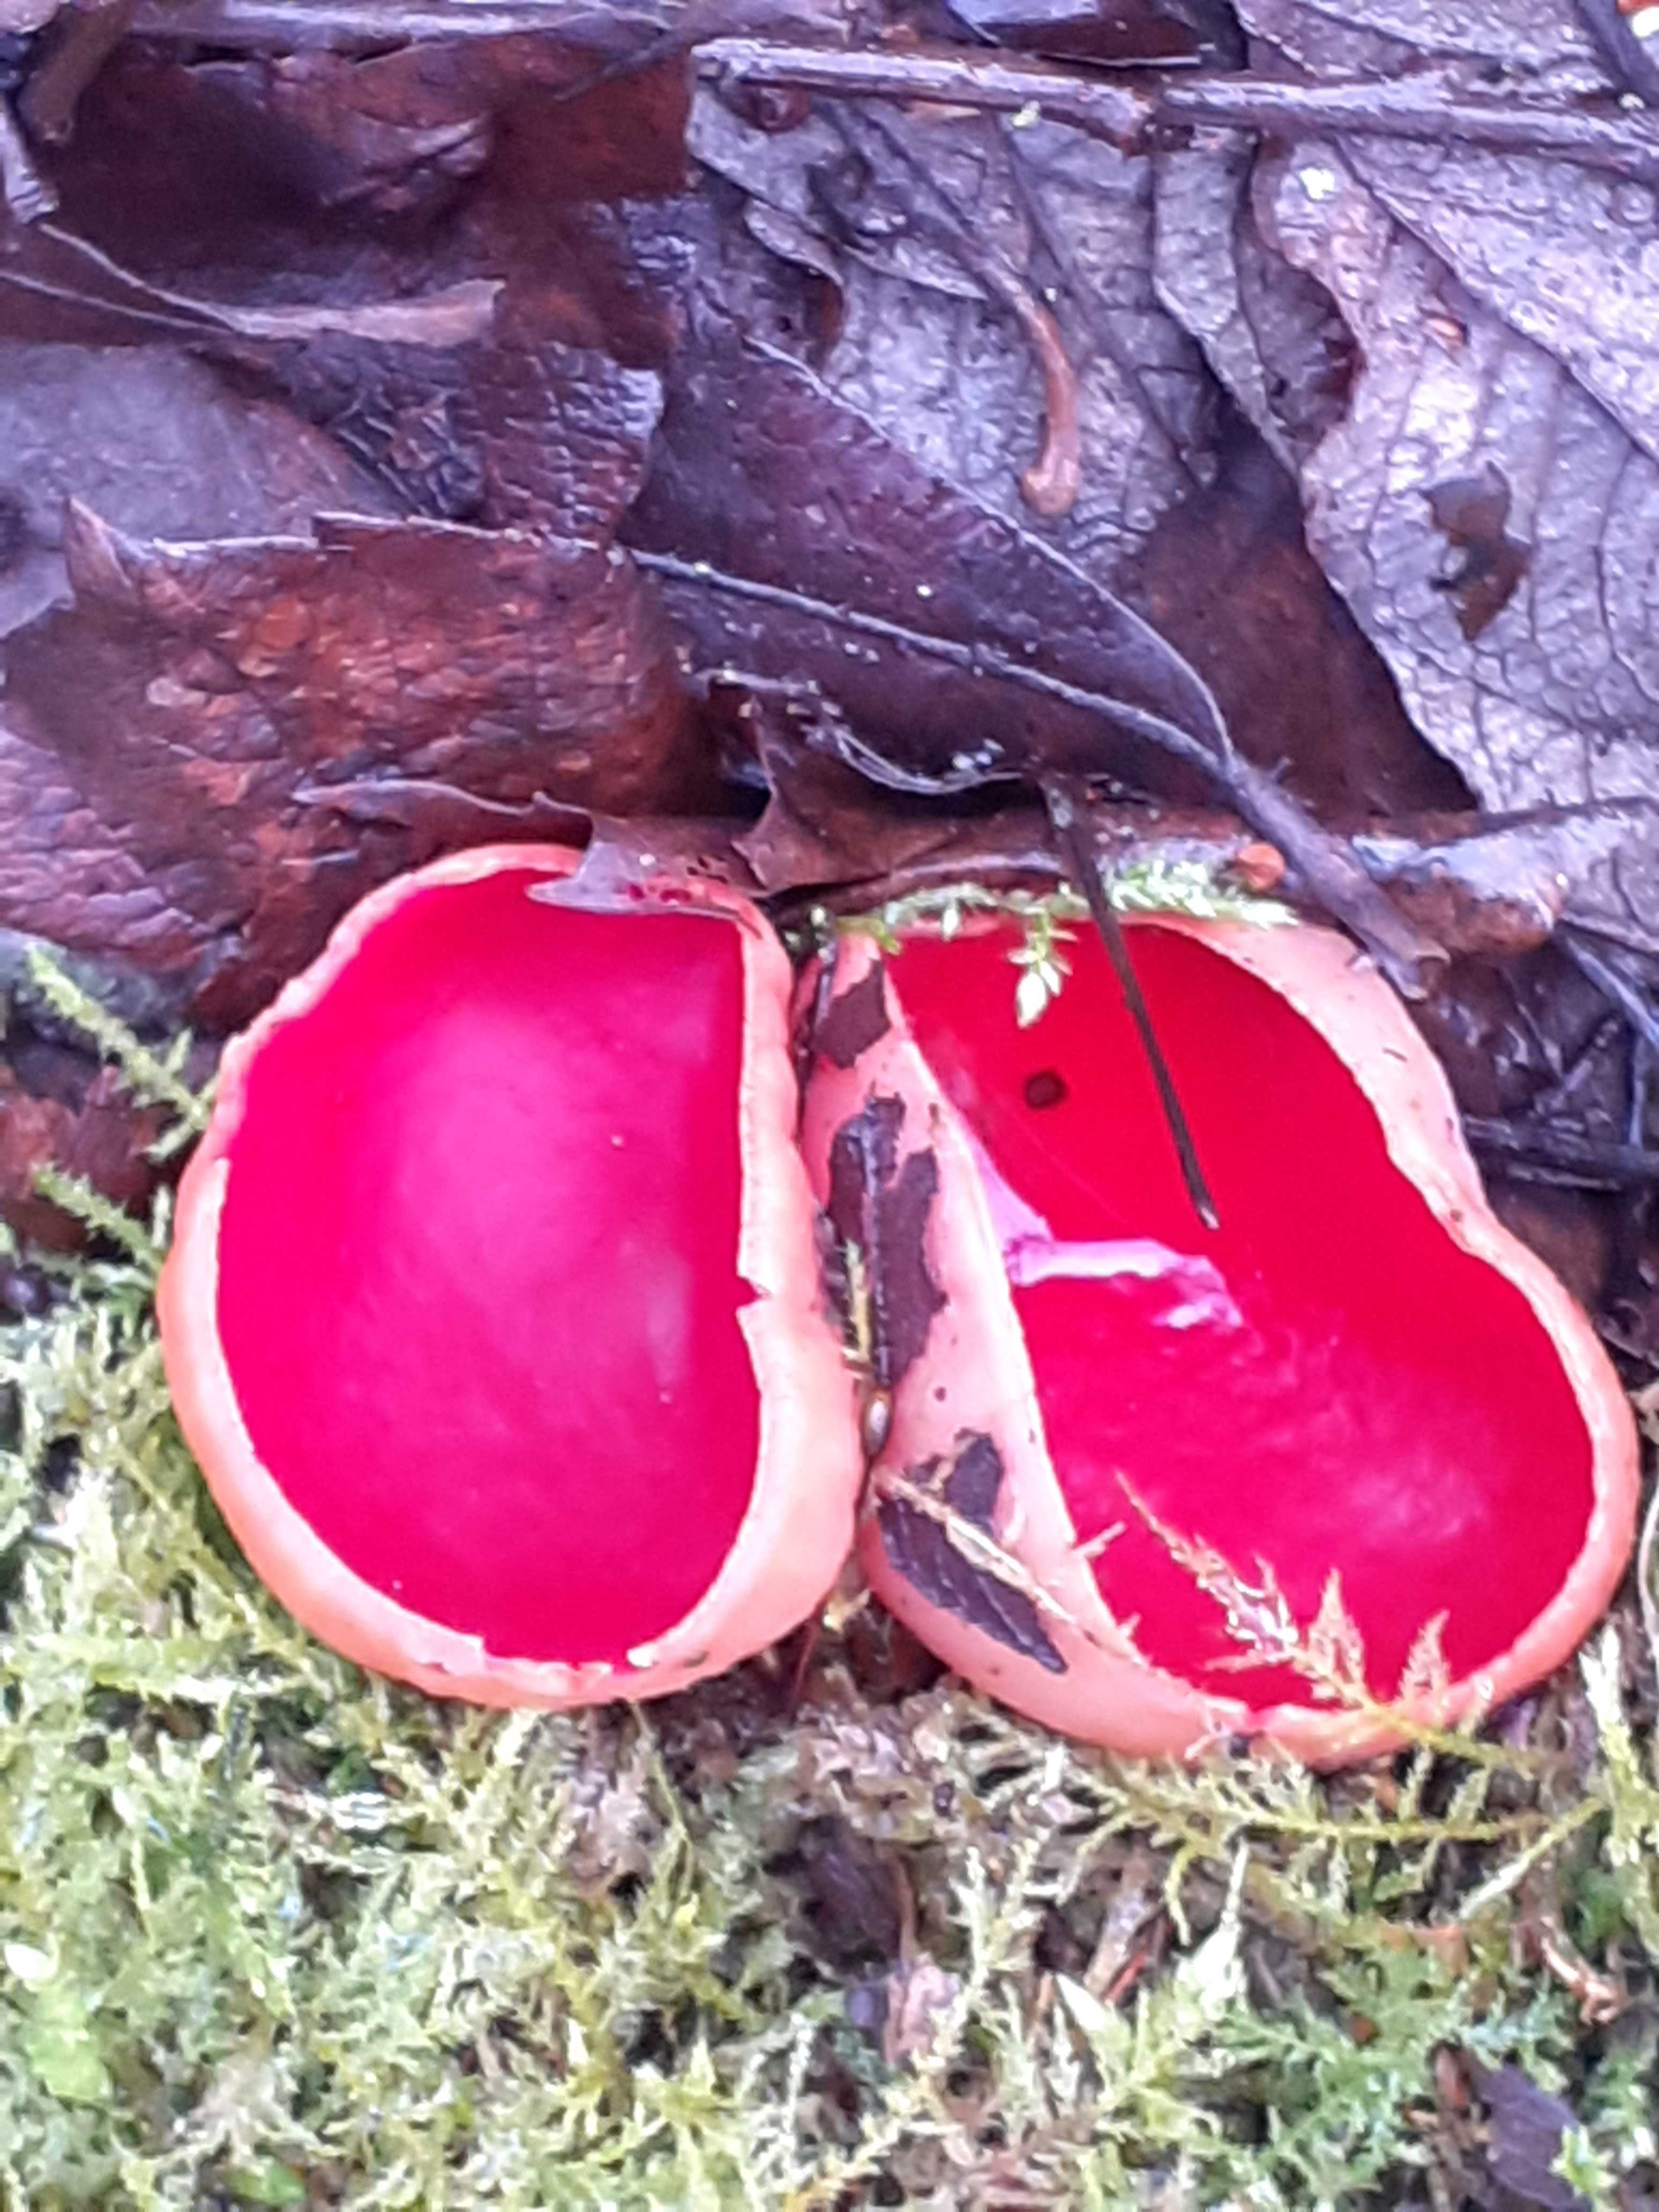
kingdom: Fungi
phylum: Ascomycota
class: Pezizomycetes
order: Pezizales
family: Sarcoscyphaceae
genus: Sarcoscypha
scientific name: Sarcoscypha austriaca
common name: krølhåret pragtbæger
